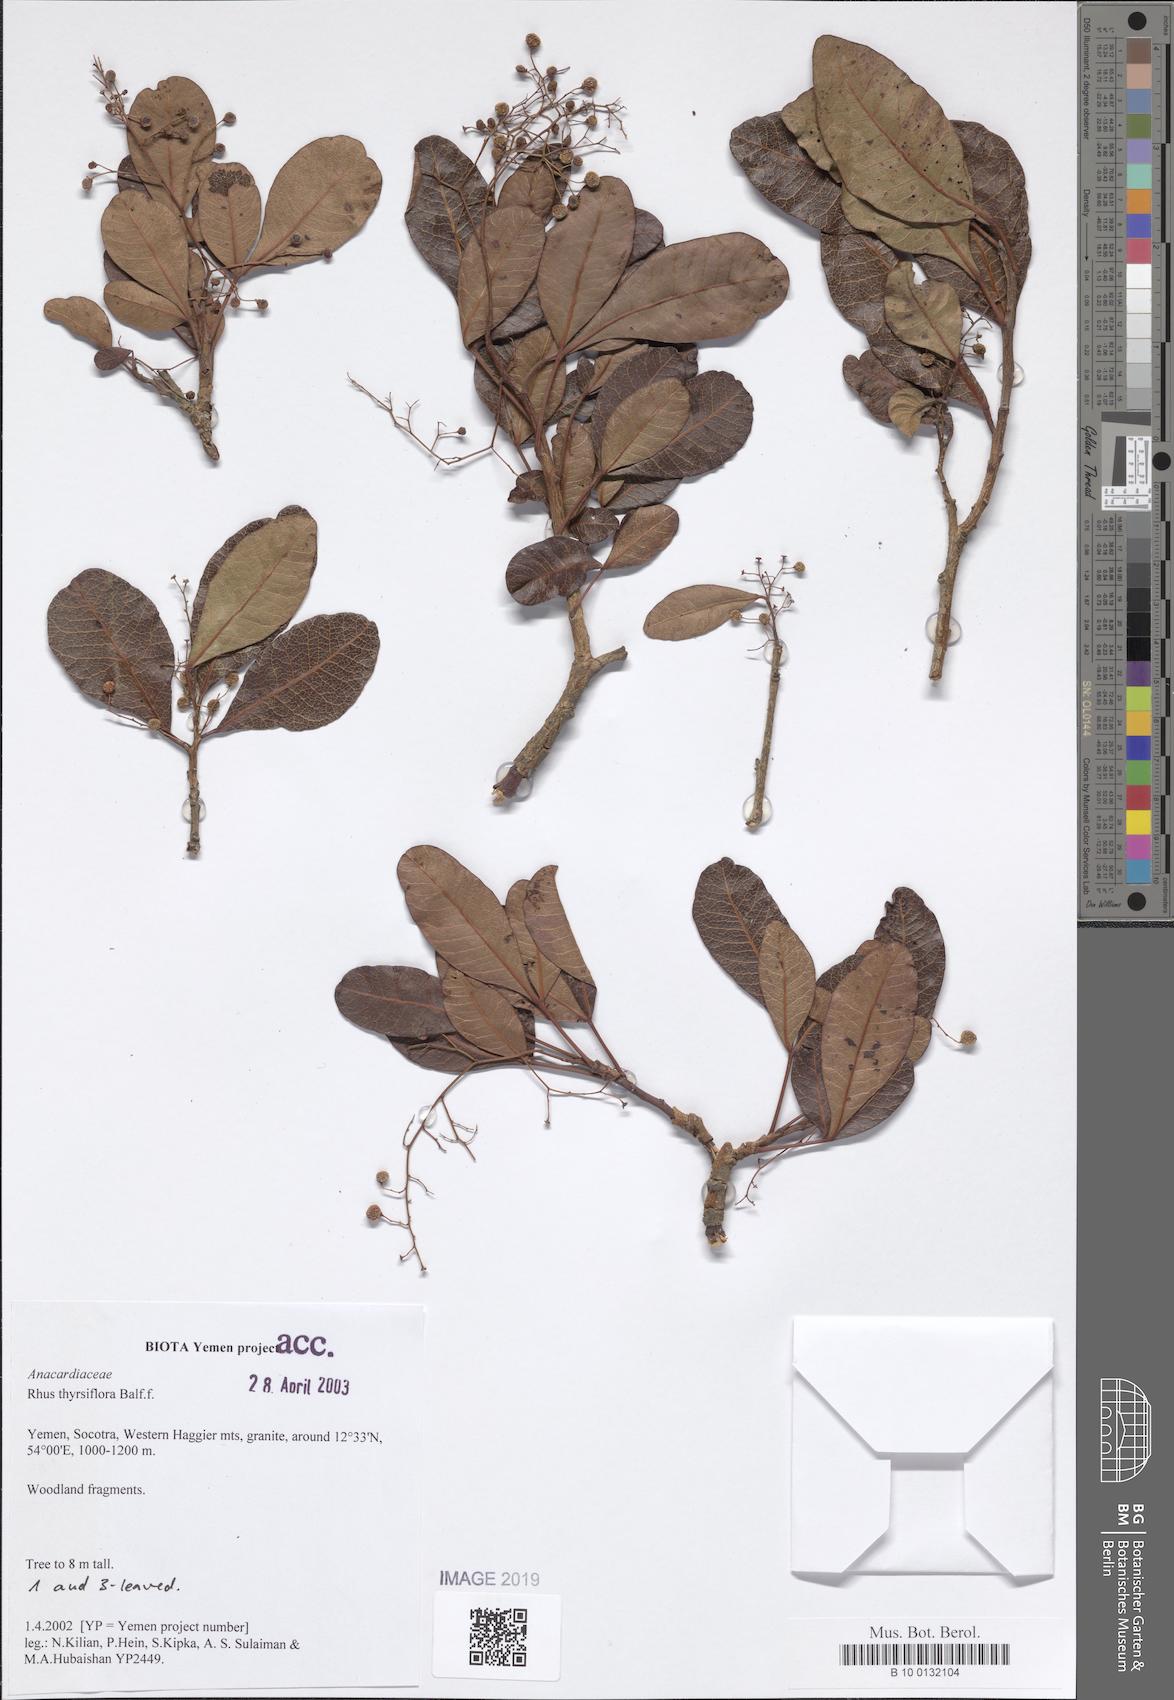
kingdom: Plantae
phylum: Tracheophyta
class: Magnoliopsida
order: Sapindales
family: Anacardiaceae
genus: Searsia
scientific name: Searsia thyrsiflora
